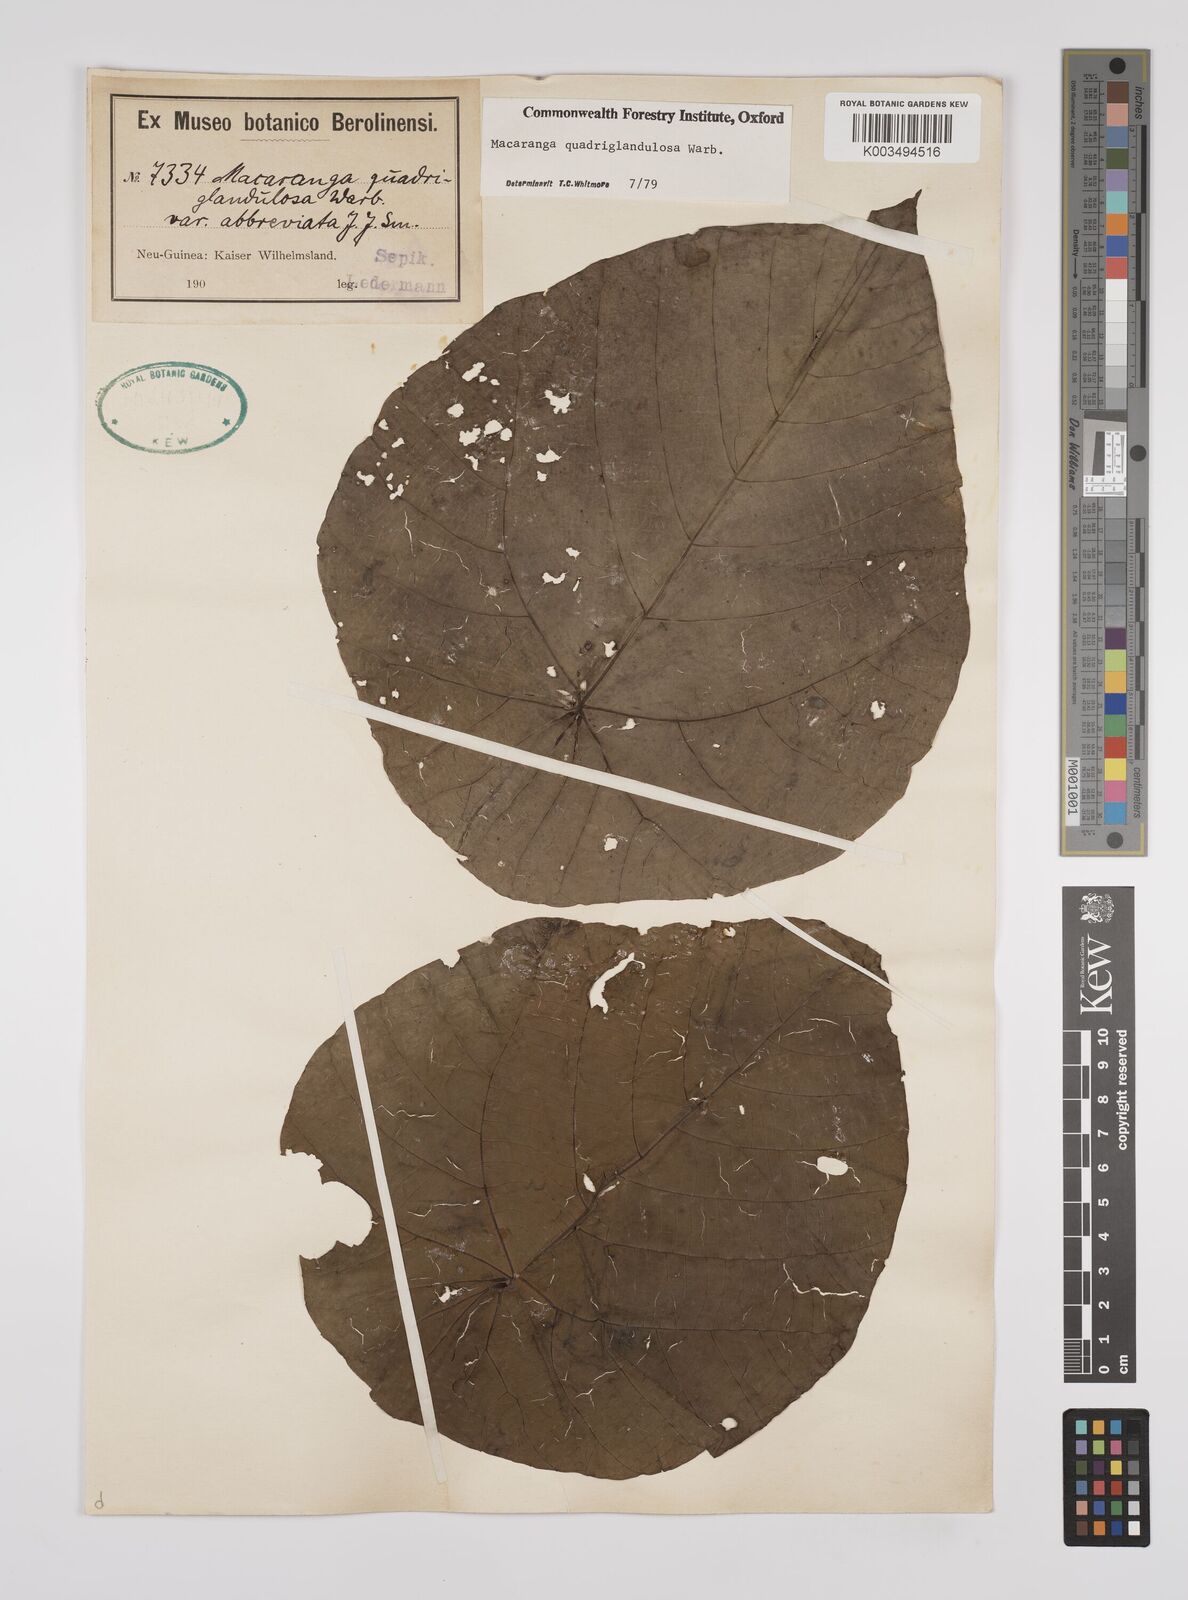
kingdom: Plantae
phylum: Tracheophyta
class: Magnoliopsida
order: Malpighiales
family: Euphorbiaceae
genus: Macaranga
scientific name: Macaranga quadriglandulosa
